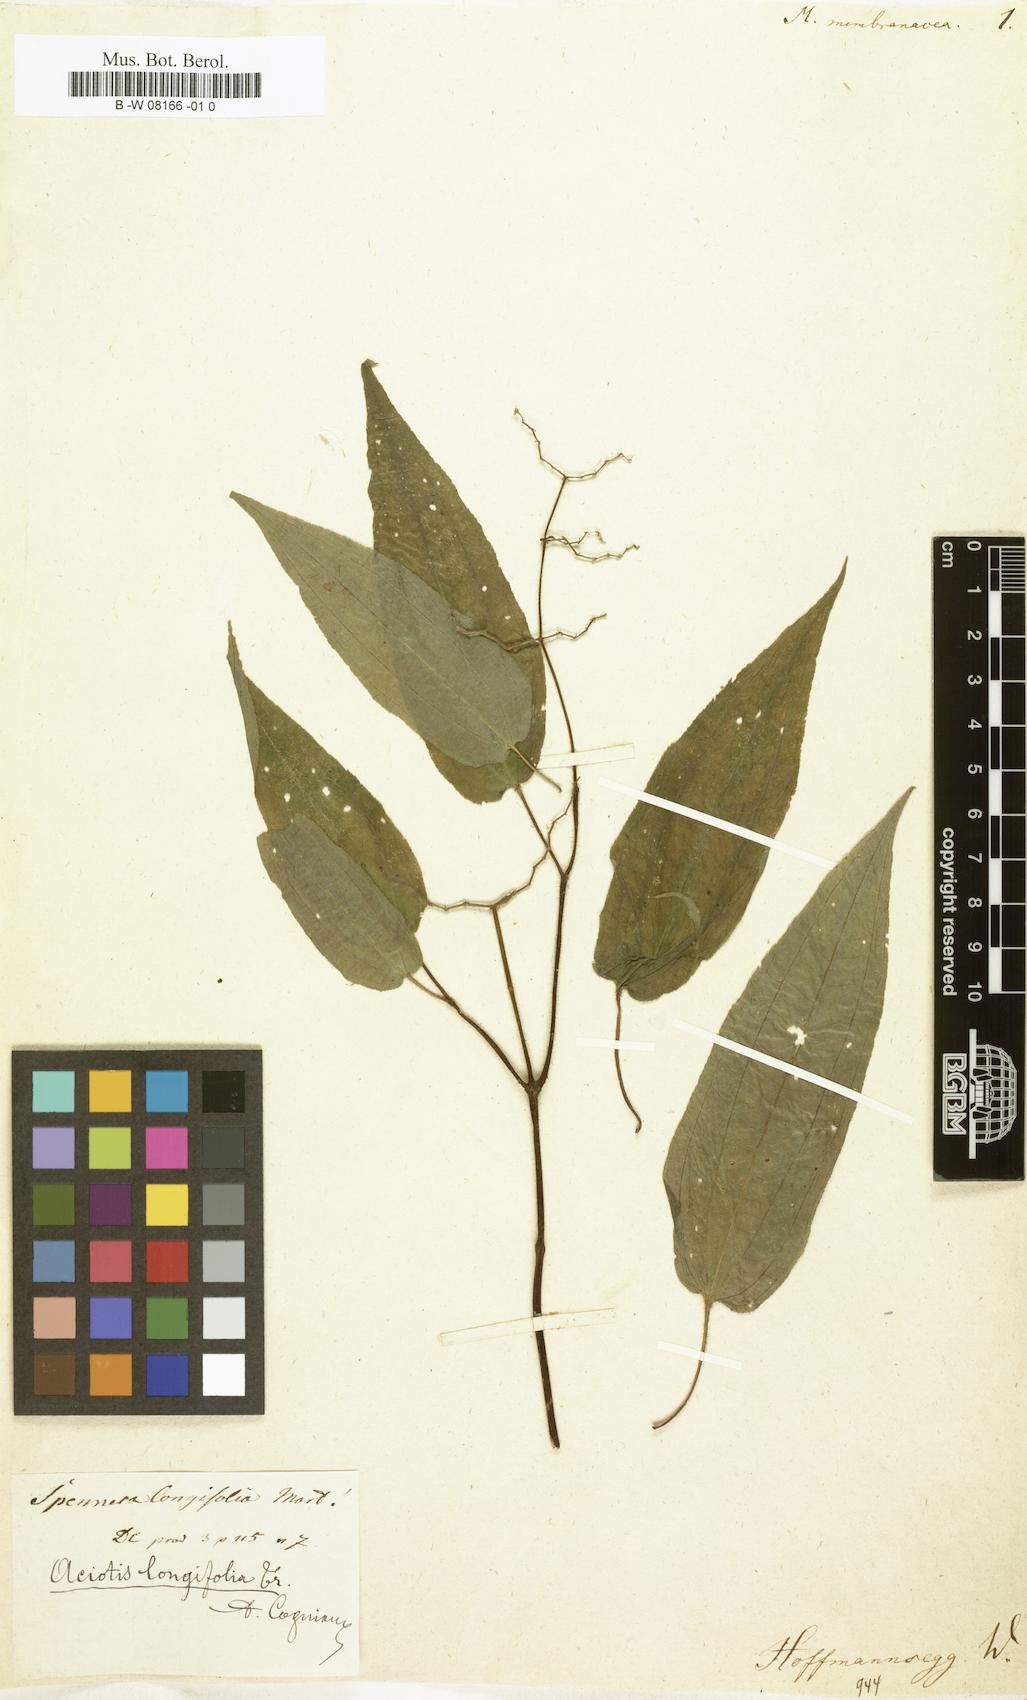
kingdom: Plantae
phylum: Tracheophyta
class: Magnoliopsida
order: Myrtales
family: Melastomataceae
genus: Melastoma
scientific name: Melastoma malabathricum
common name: Indian-rhododendron
